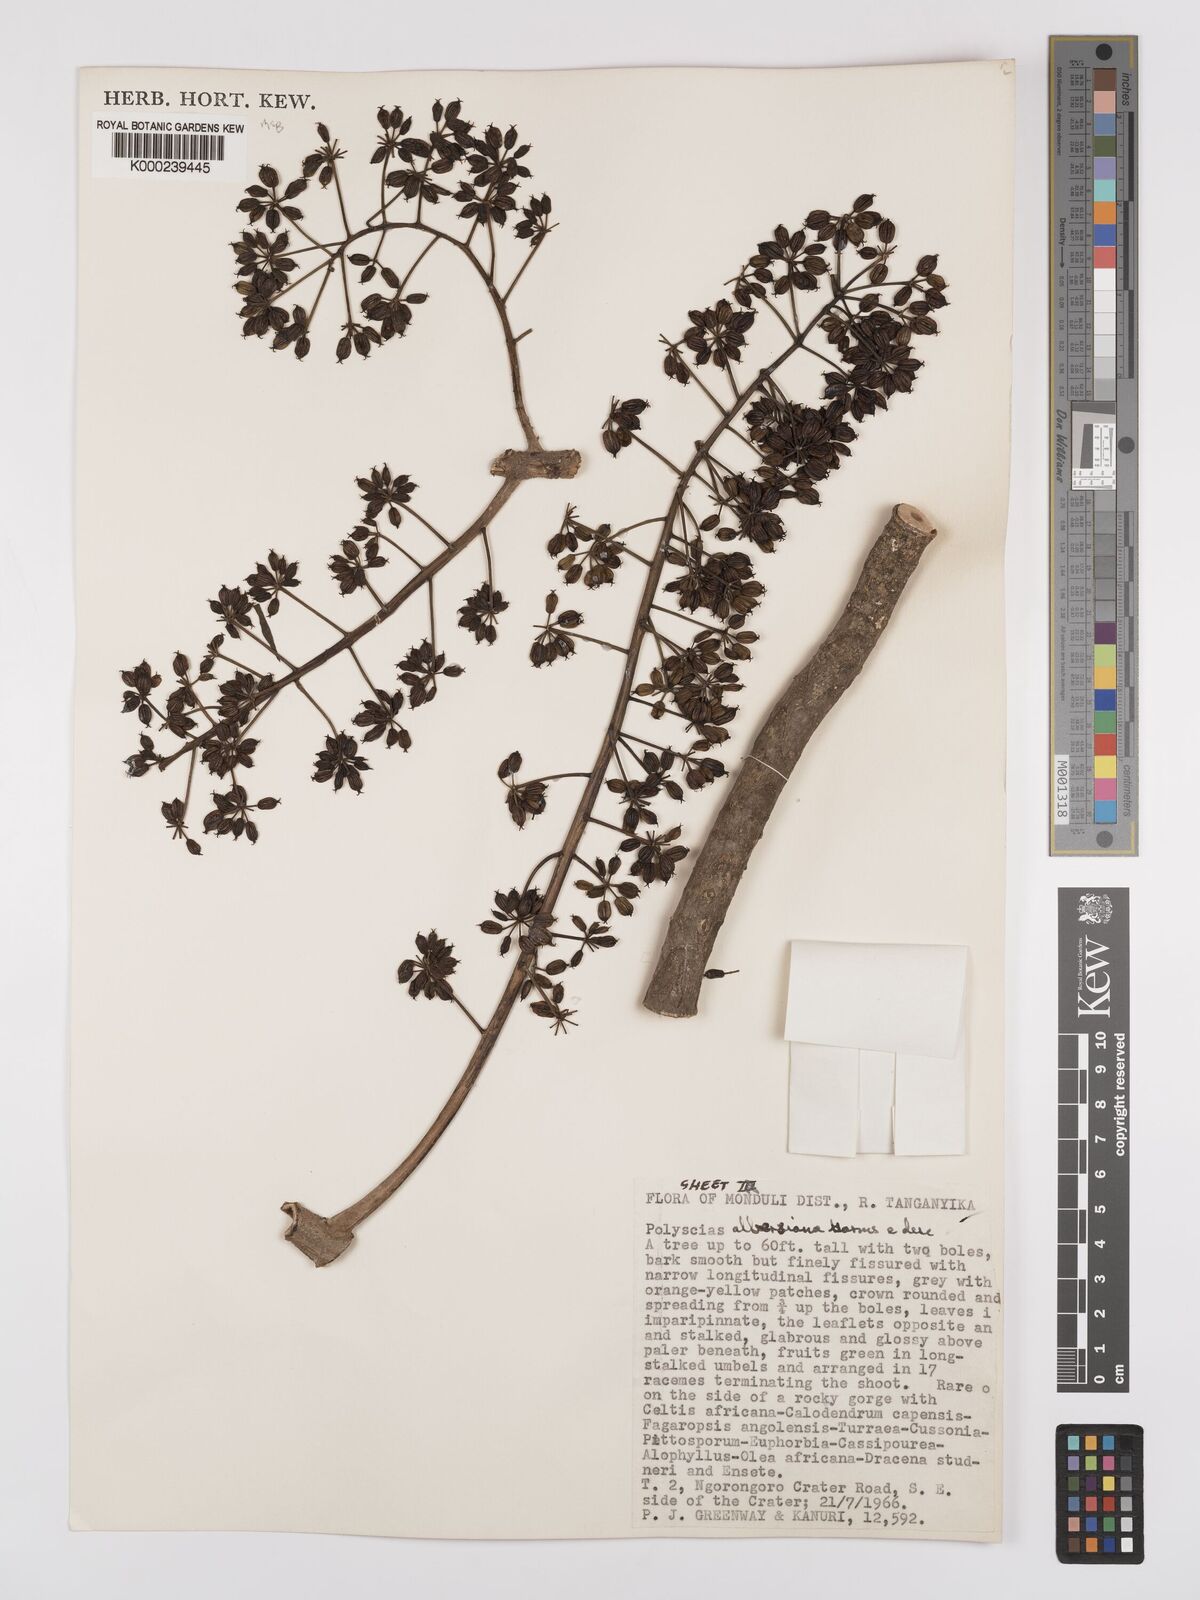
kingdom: Plantae
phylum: Tracheophyta
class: Magnoliopsida
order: Apiales
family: Araliaceae
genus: Polyscias
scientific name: Polyscias albersiana
